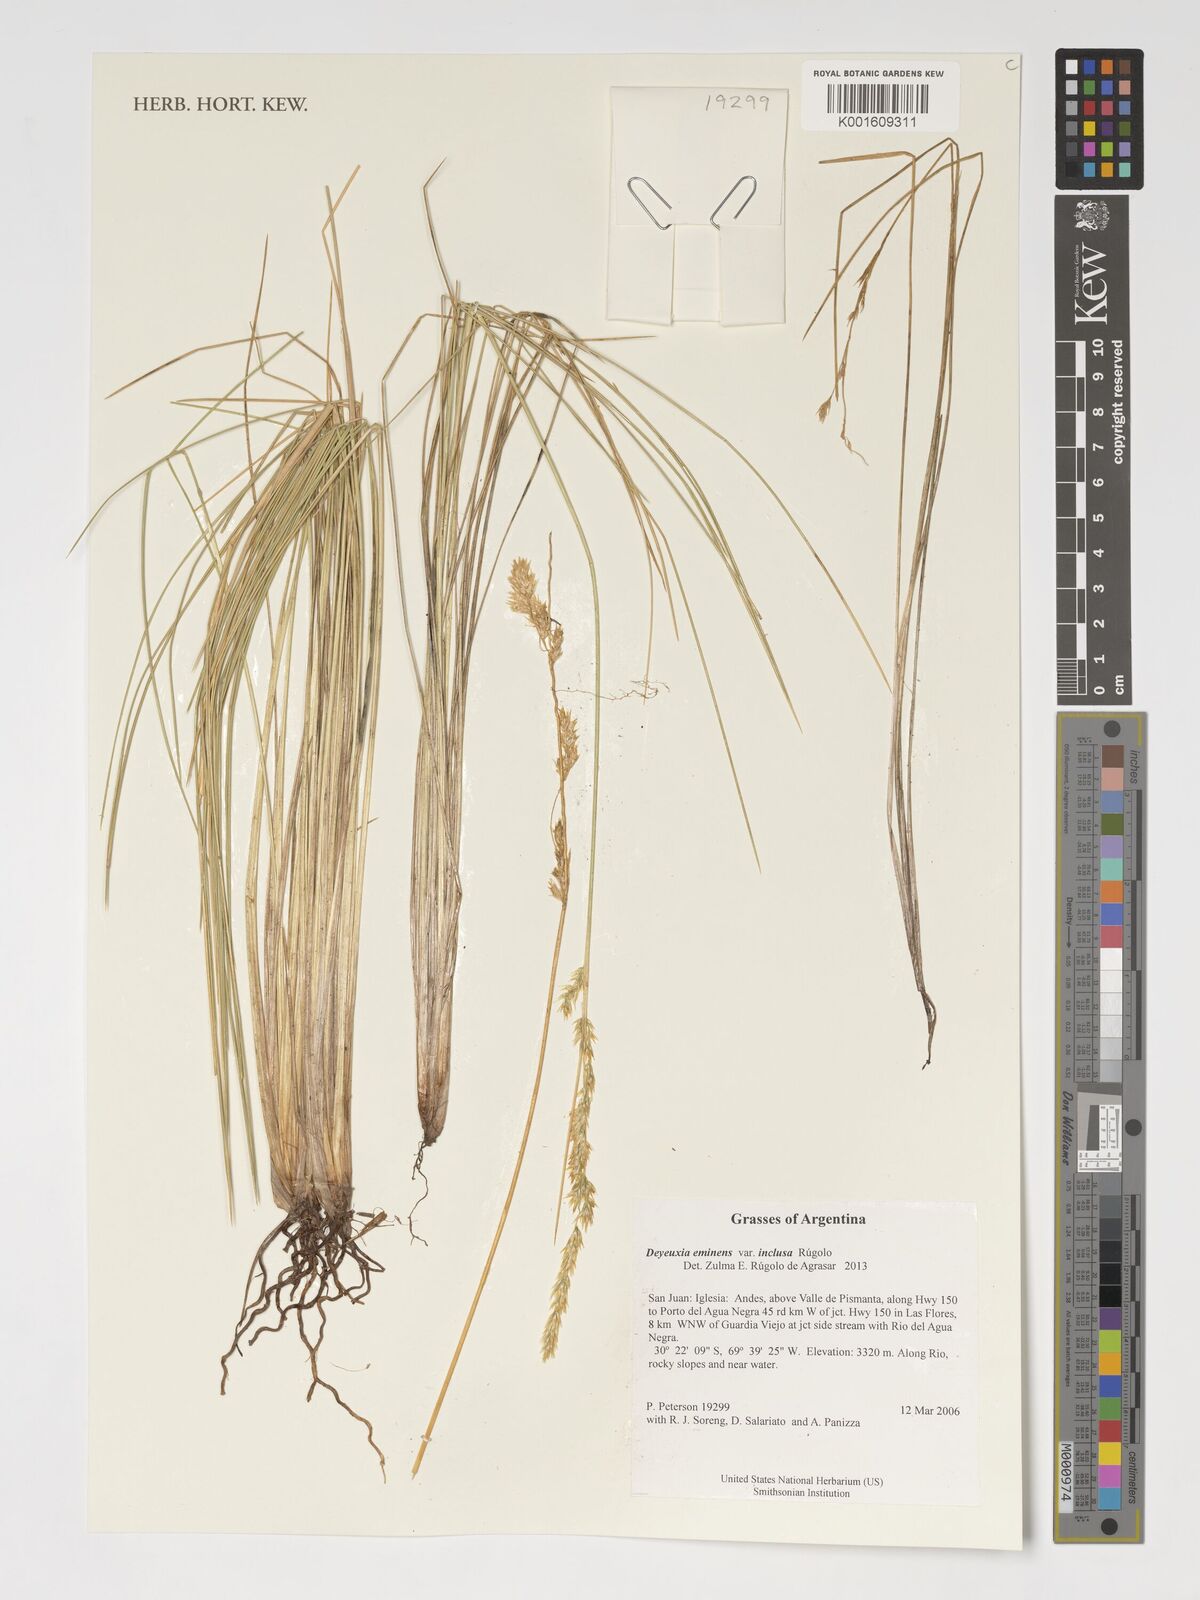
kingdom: Plantae
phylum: Tracheophyta
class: Liliopsida
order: Poales
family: Poaceae
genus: Deschampsia
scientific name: Deschampsia eminens
